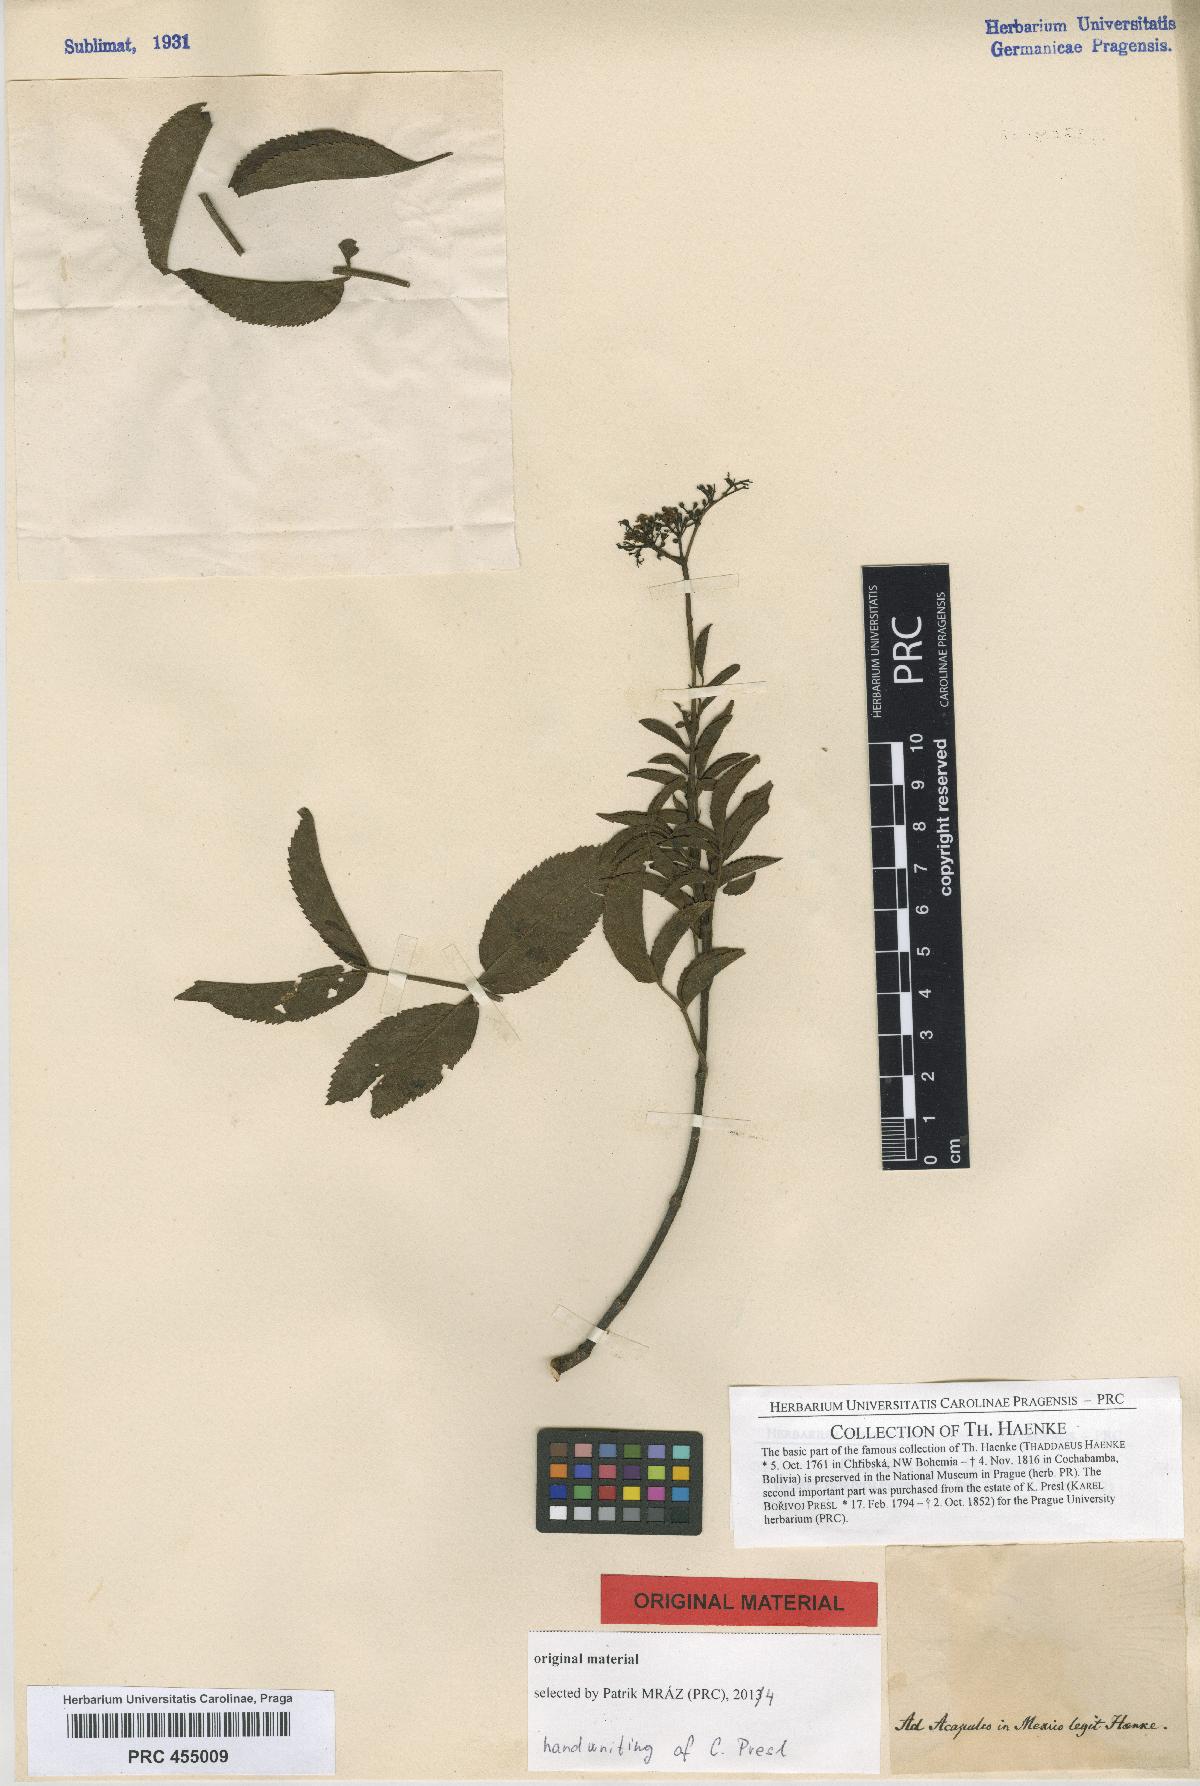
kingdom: Plantae
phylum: Tracheophyta
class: Magnoliopsida
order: Dipsacales
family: Viburnaceae
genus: Sambucus
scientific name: Sambucus mexicana
